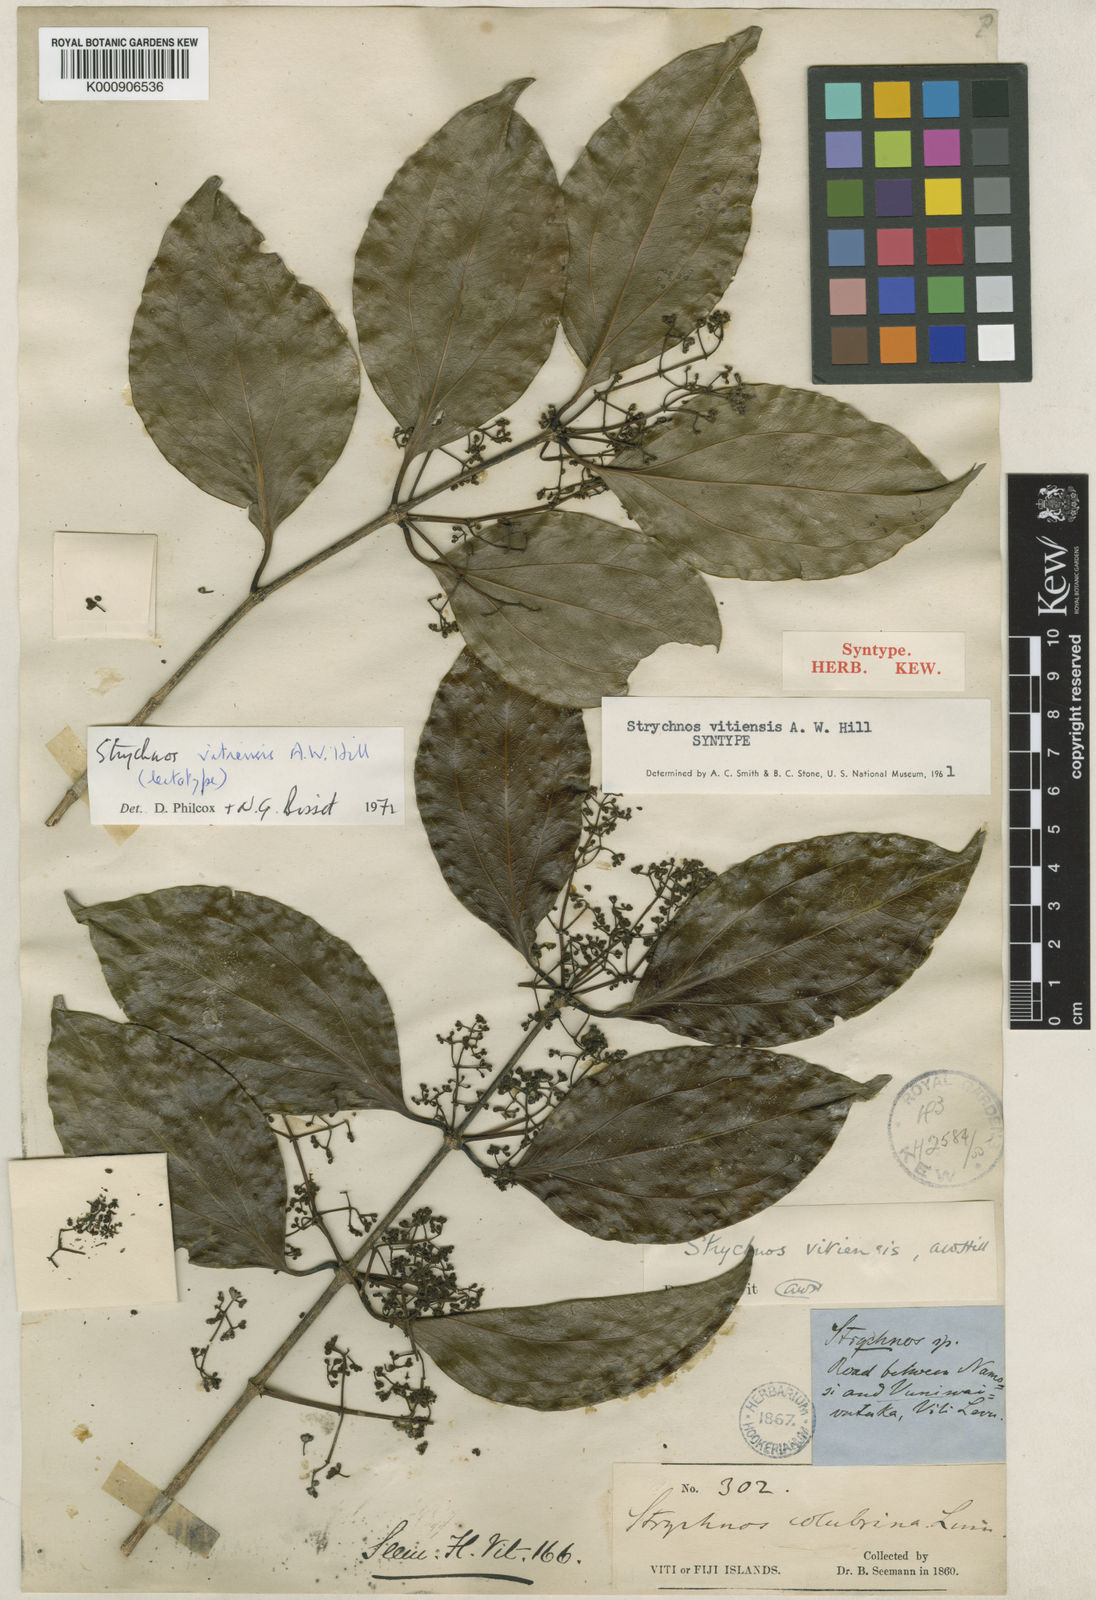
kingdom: Plantae
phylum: Tracheophyta
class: Magnoliopsida
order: Gentianales
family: Loganiaceae
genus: Strychnos
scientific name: Strychnos vitiensis
